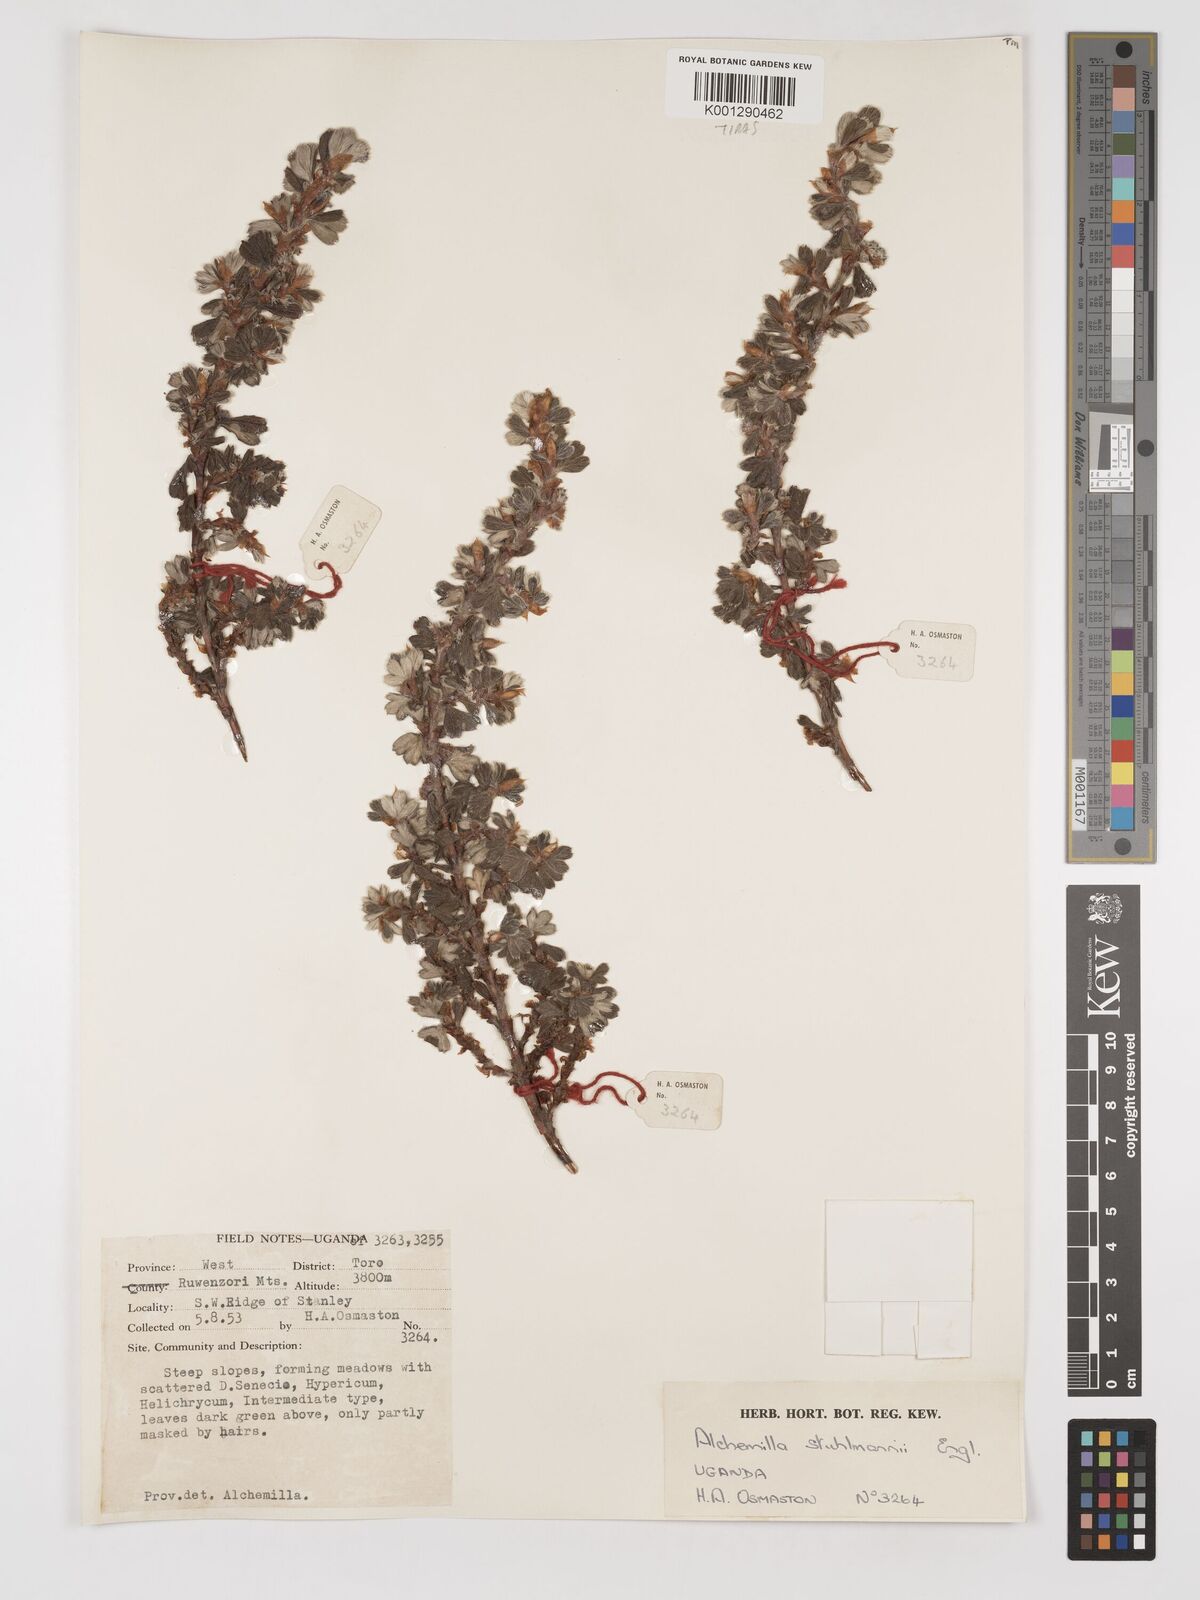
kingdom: Plantae
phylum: Tracheophyta
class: Magnoliopsida
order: Rosales
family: Rosaceae
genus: Alchemilla
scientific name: Alchemilla stuhlmannii
